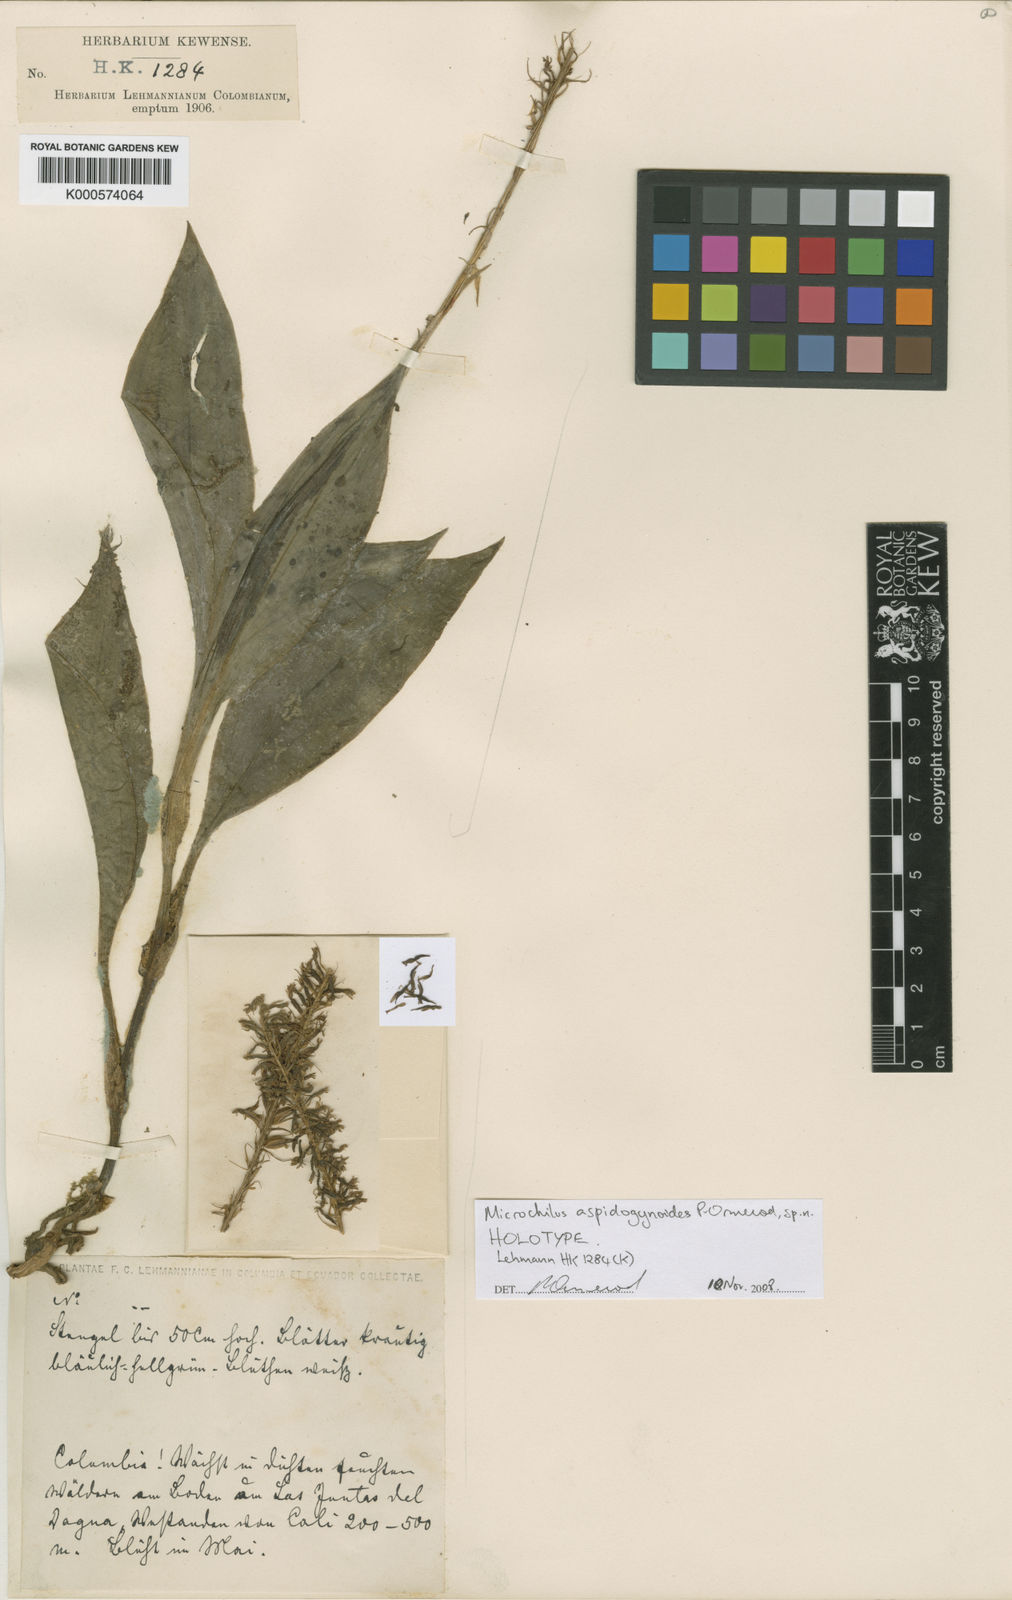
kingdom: Plantae
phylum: Tracheophyta
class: Liliopsida
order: Asparagales
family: Orchidaceae
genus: Microchilus
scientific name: Microchilus
